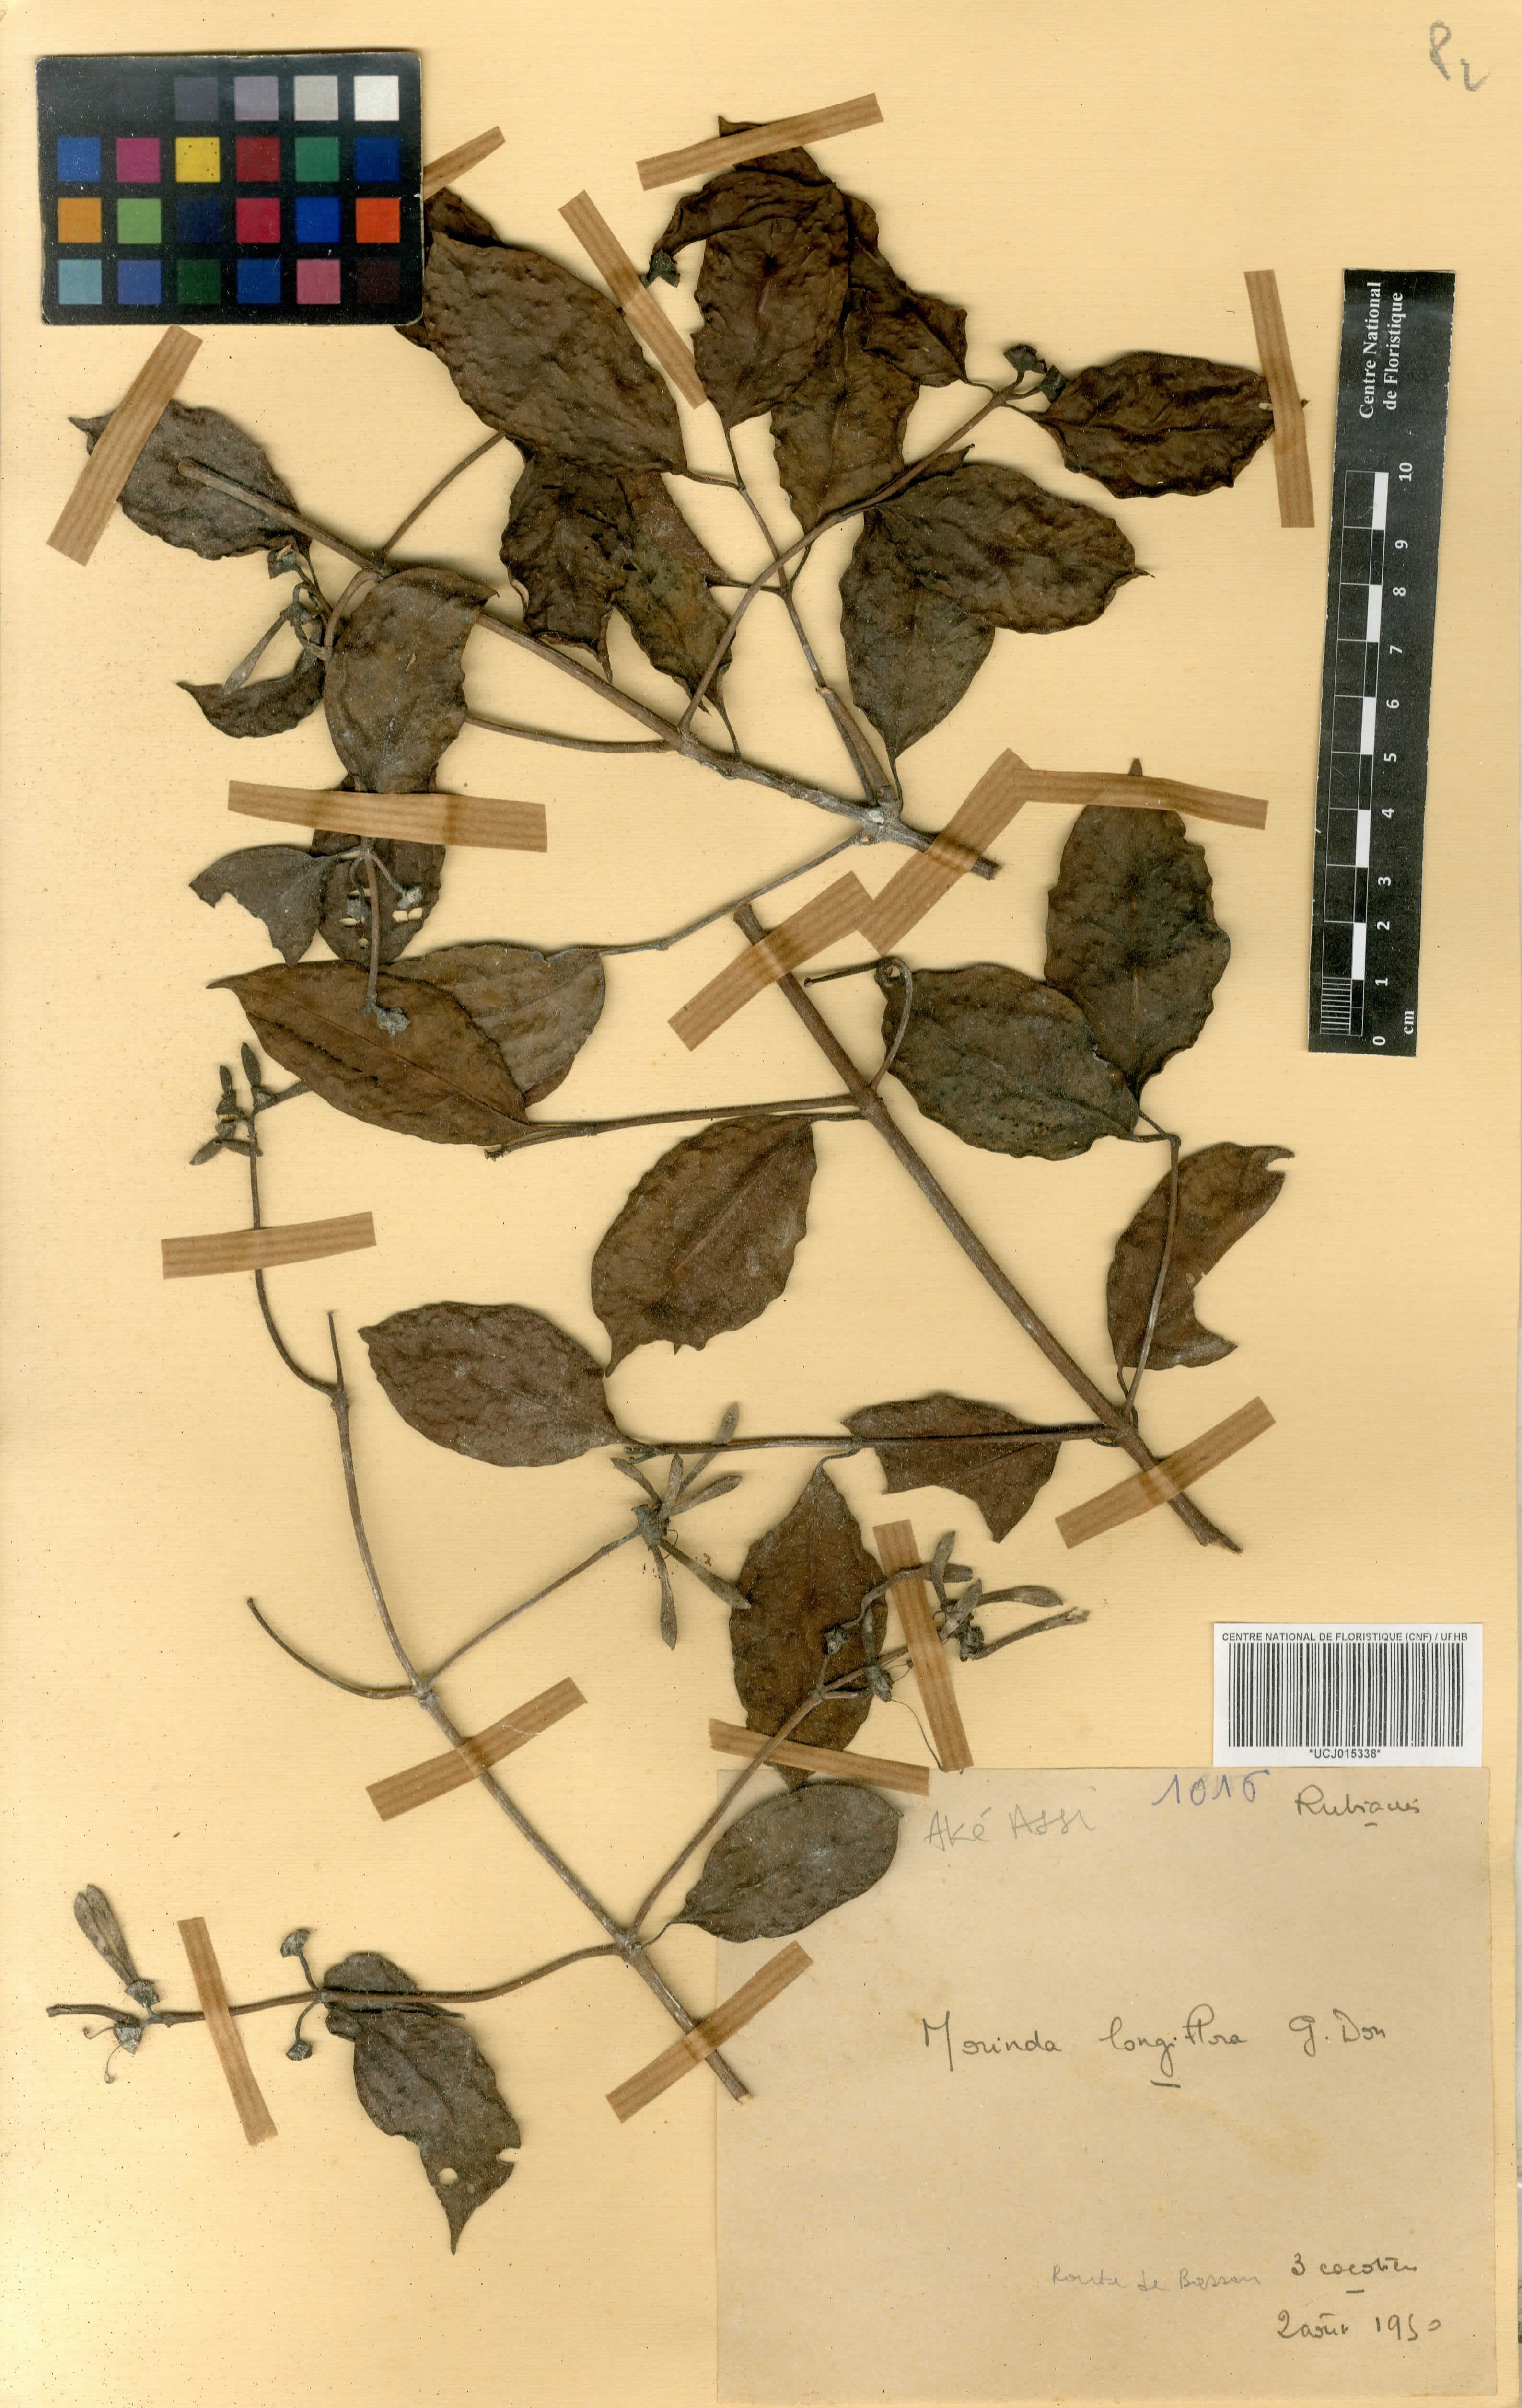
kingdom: Plantae
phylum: Tracheophyta
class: Magnoliopsida
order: Gentianales
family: Rubiaceae
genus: Morinda
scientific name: Morinda longiflora
